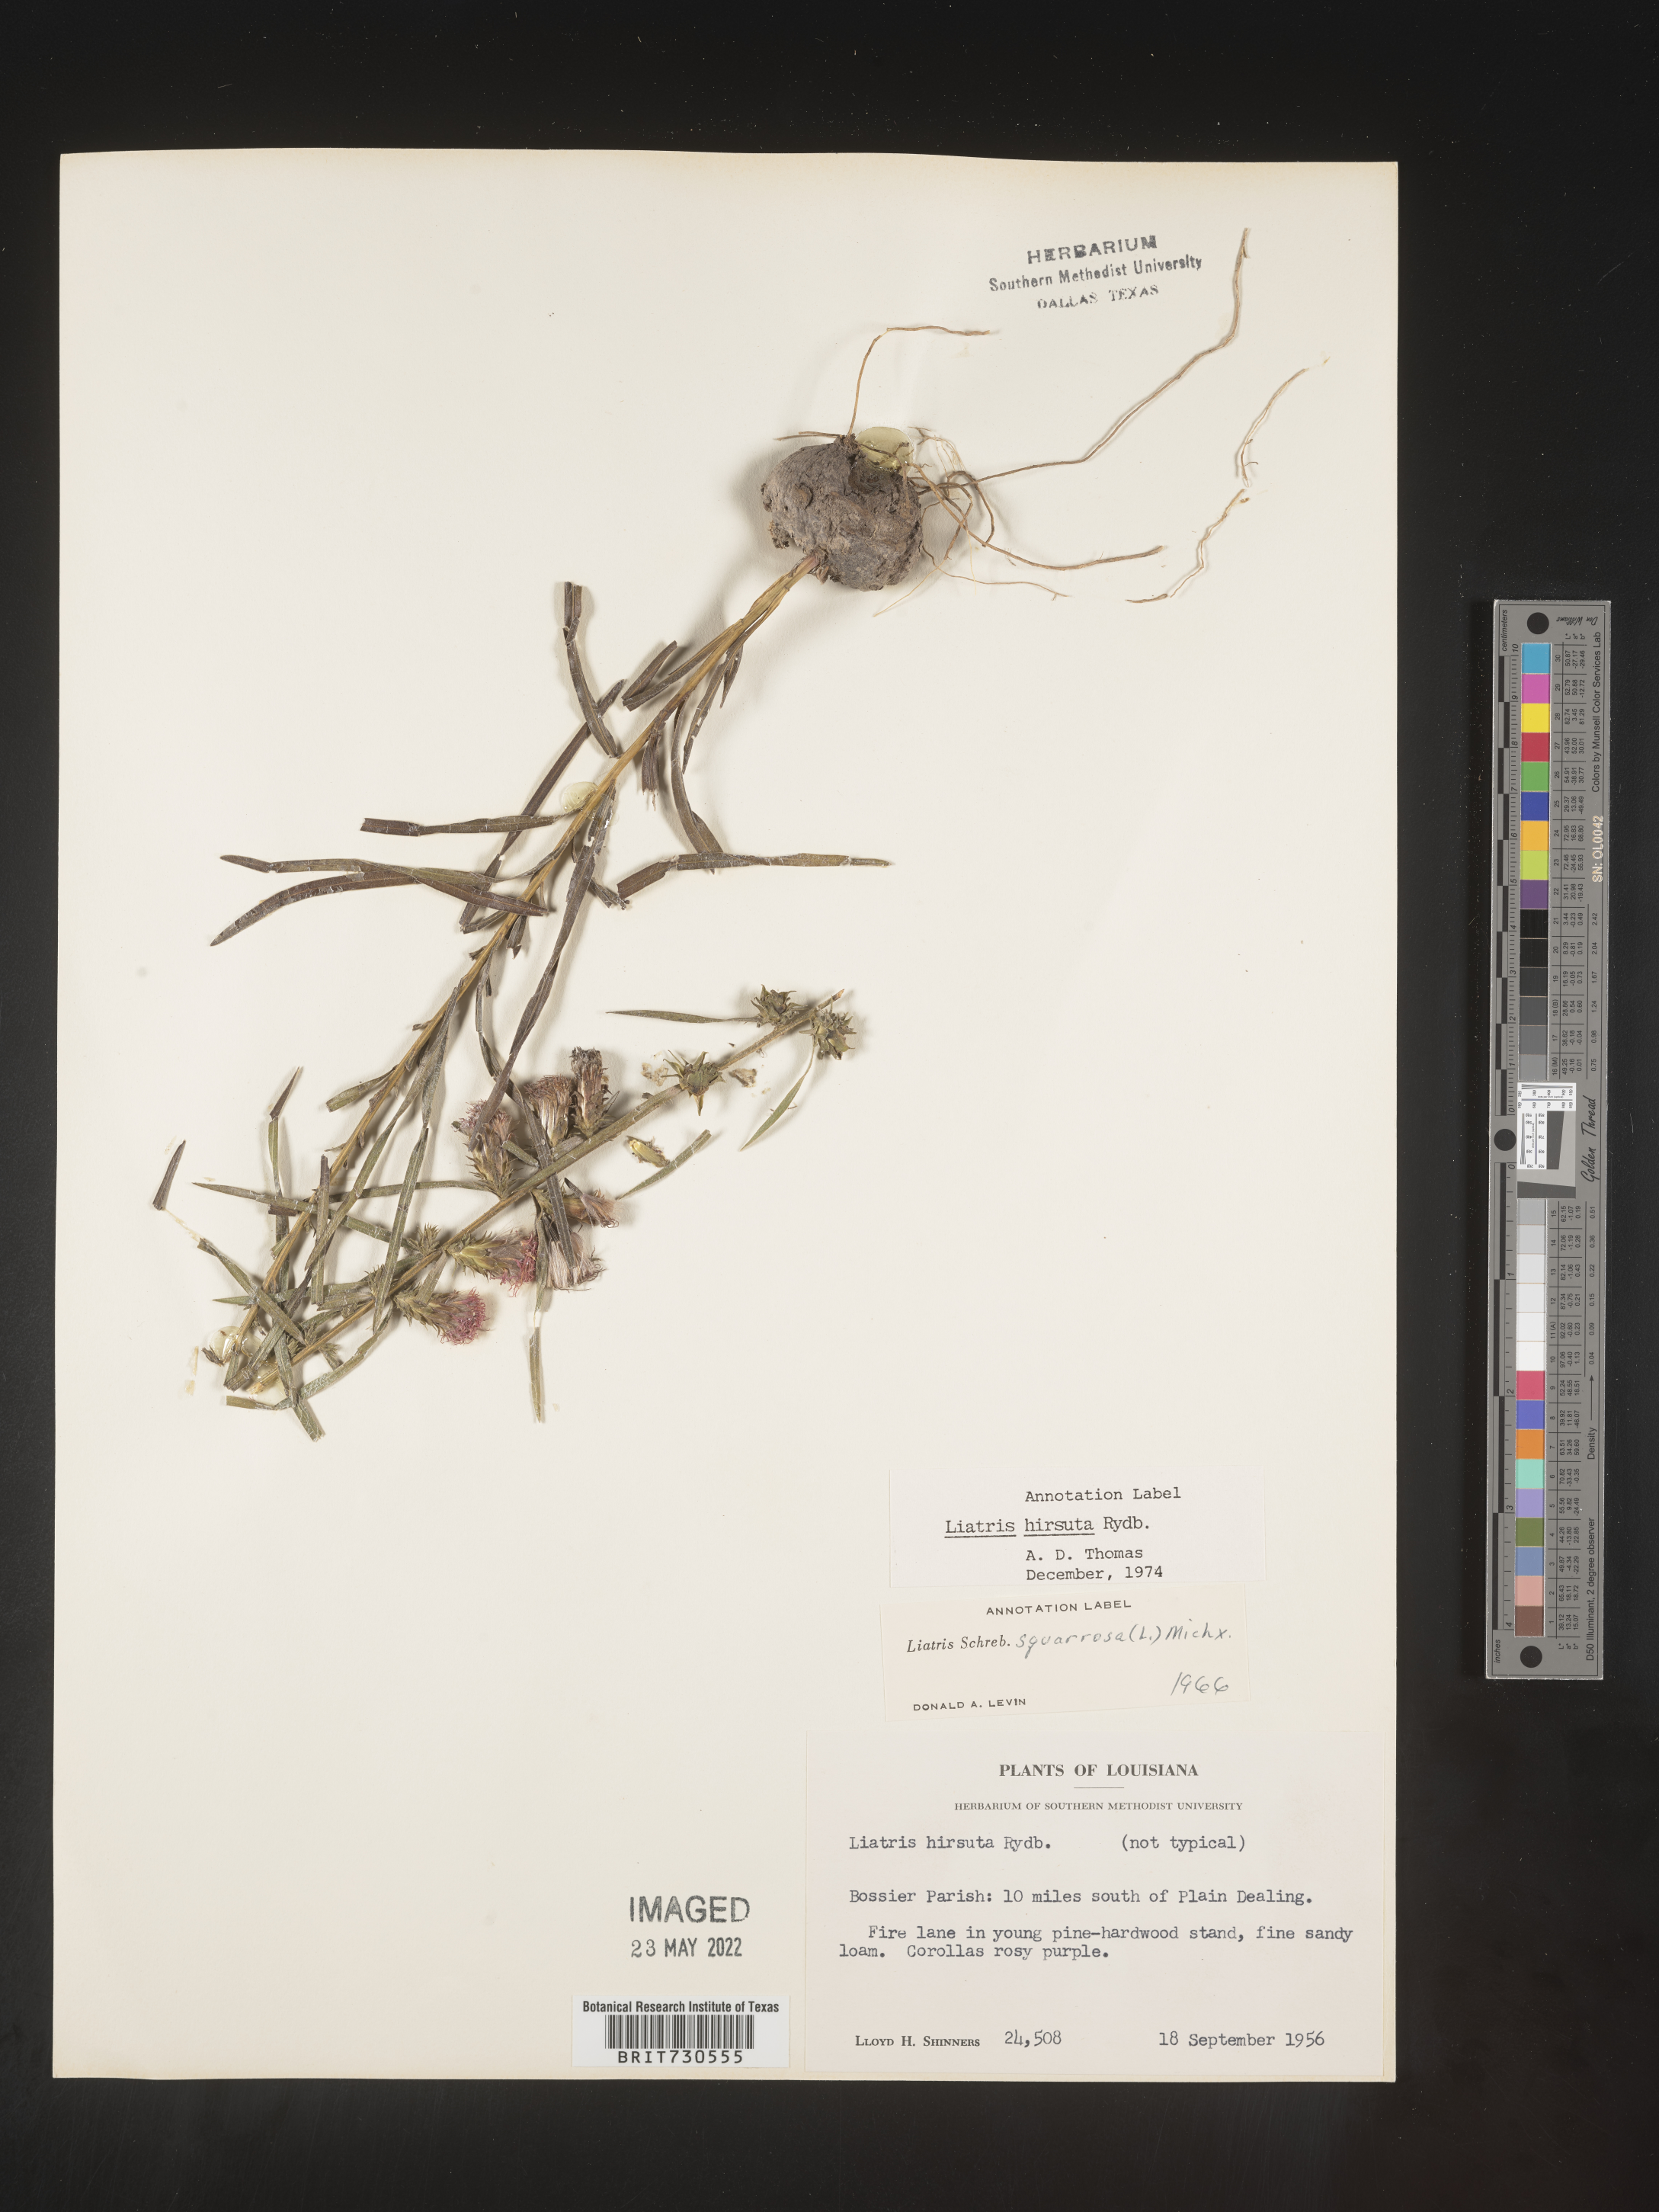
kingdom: Plantae
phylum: Tracheophyta
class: Magnoliopsida
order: Asterales
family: Asteraceae
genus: Liatris
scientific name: Liatris hirsuta
